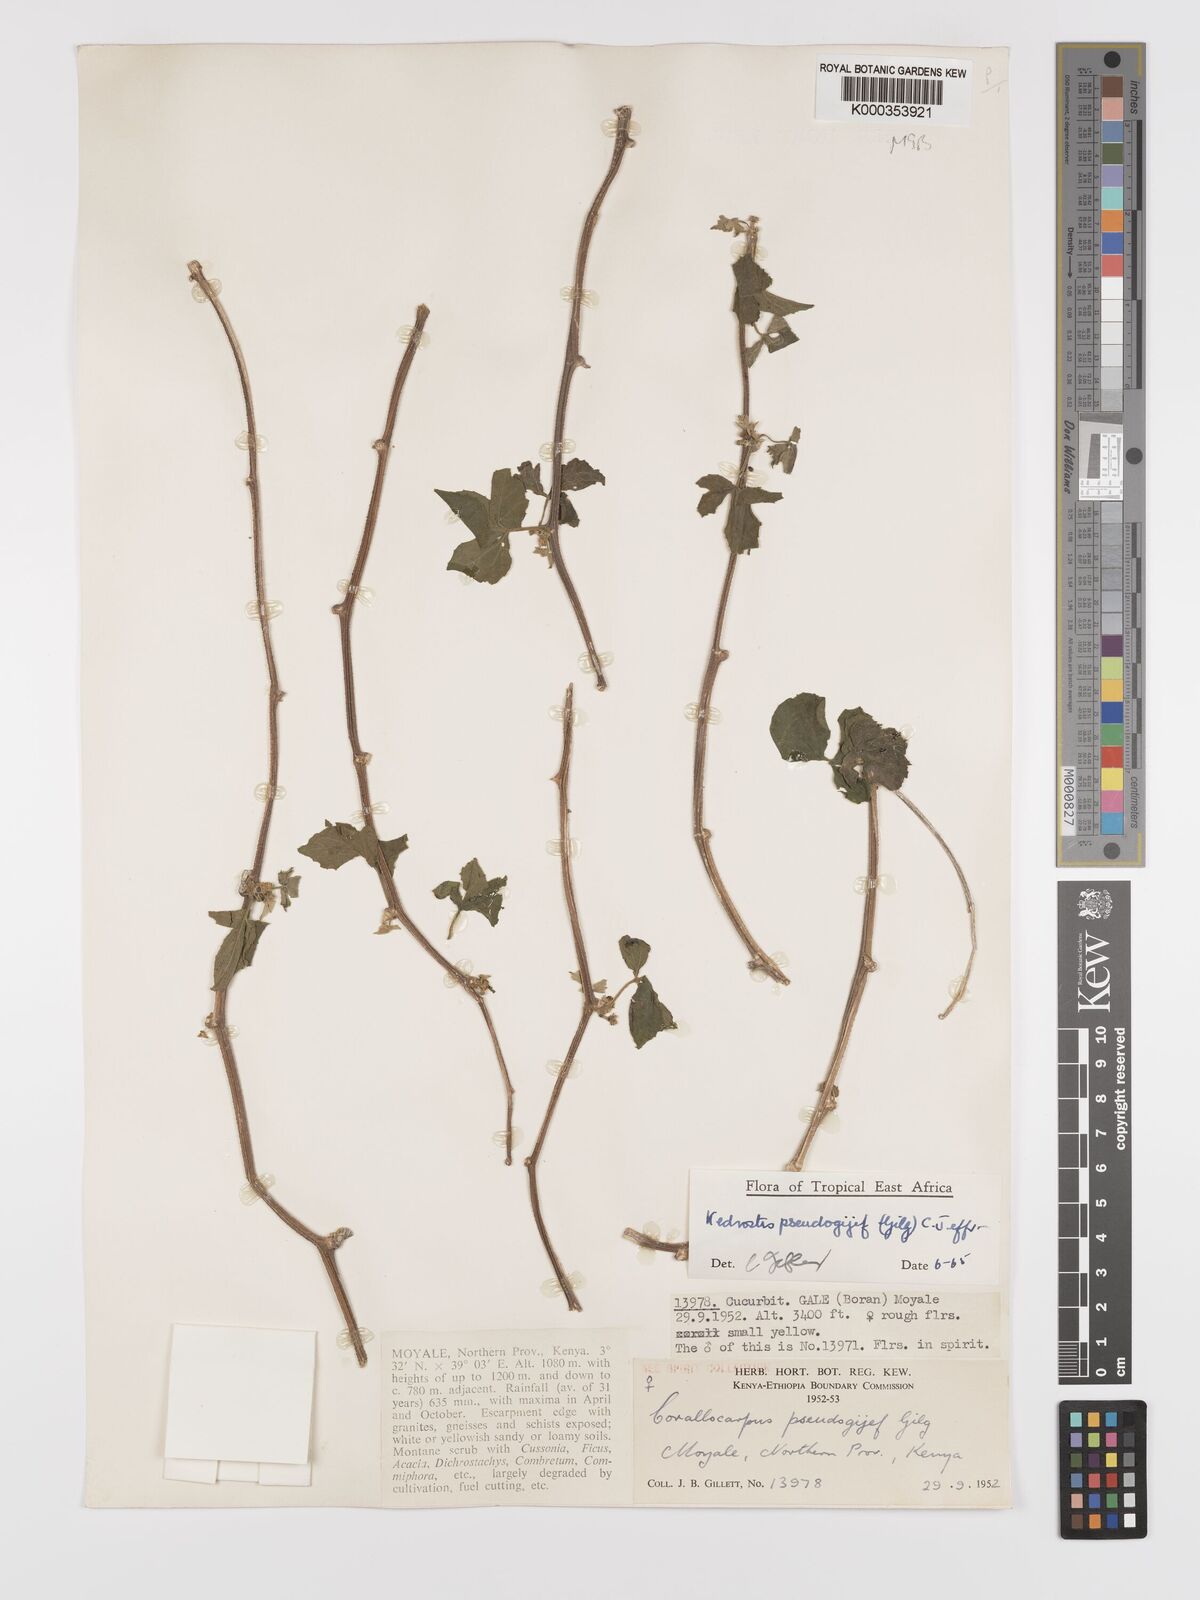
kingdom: Plantae
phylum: Tracheophyta
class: Magnoliopsida
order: Cucurbitales
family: Cucurbitaceae
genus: Kedrostis
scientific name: Kedrostis pseudogijef
